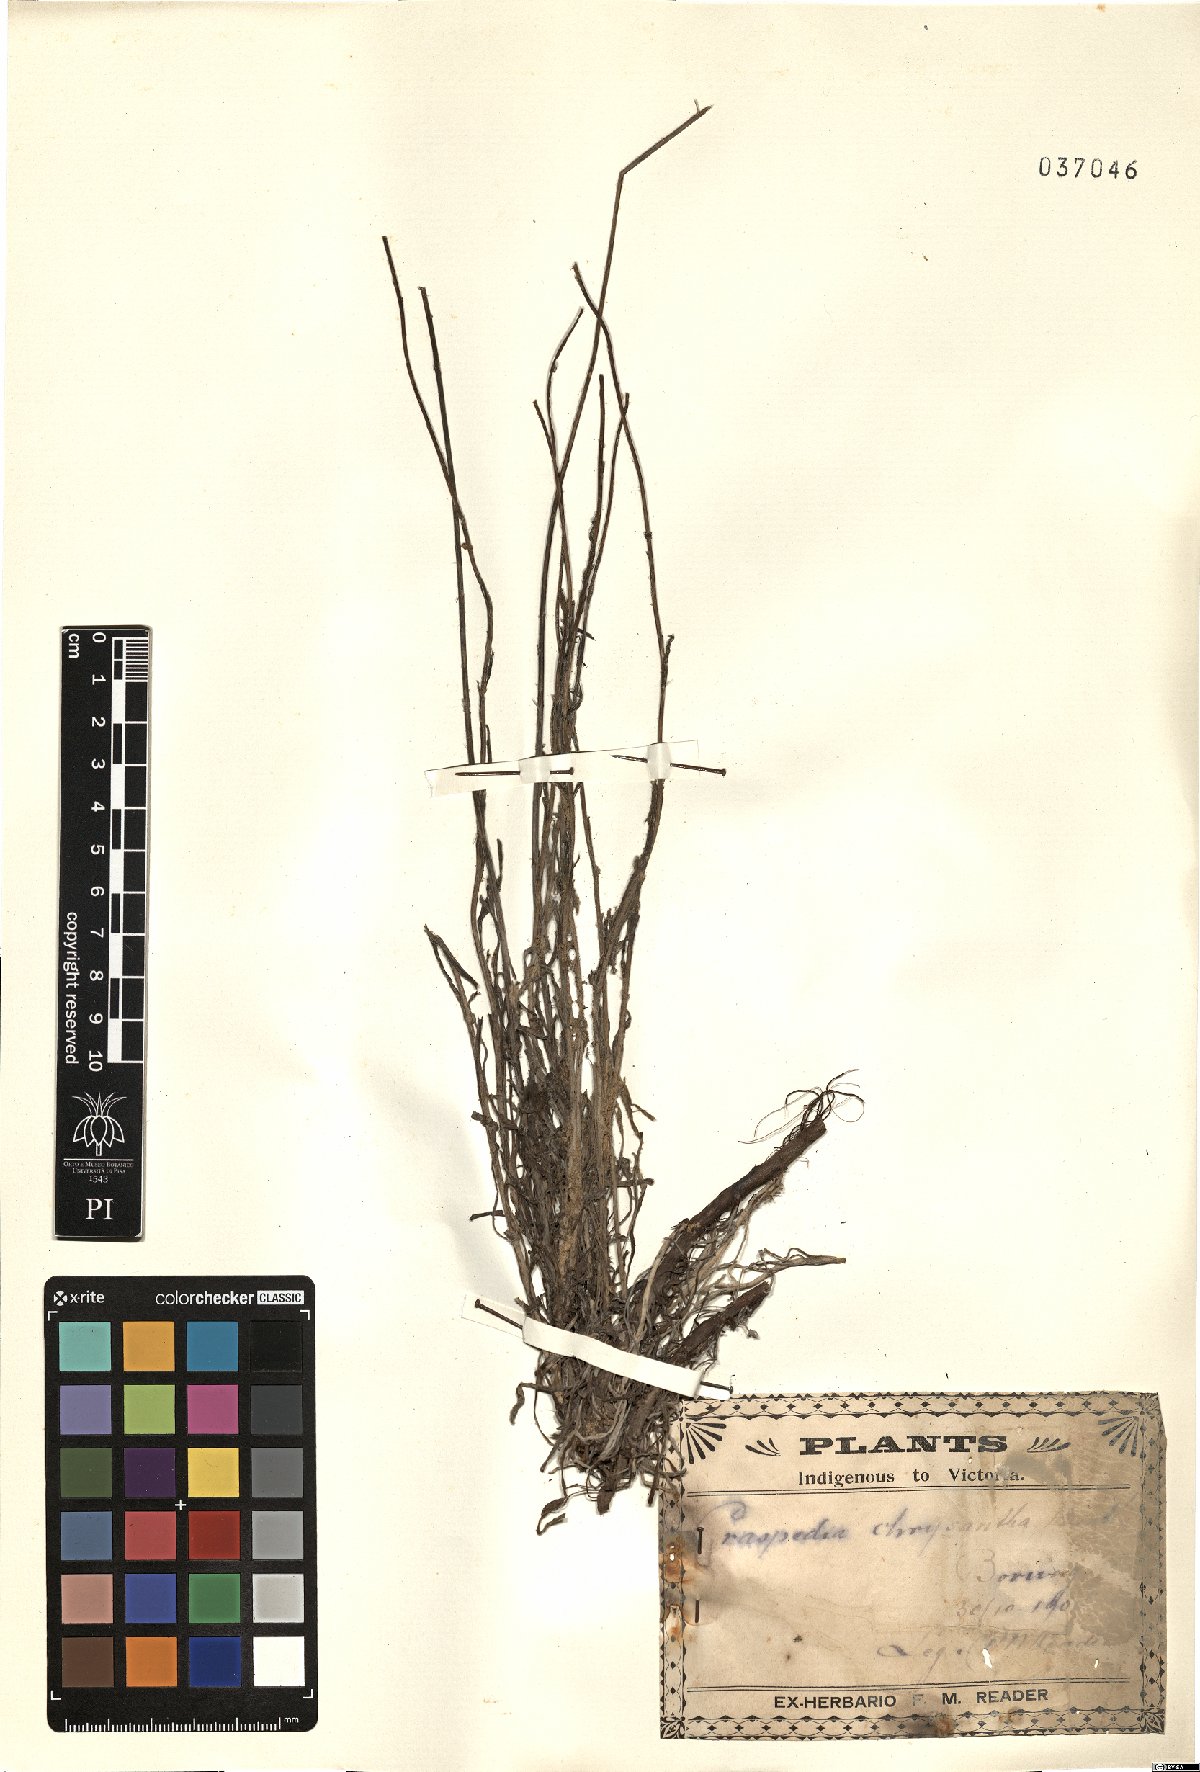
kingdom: Plantae
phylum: Tracheophyta
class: Magnoliopsida
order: Asterales
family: Asteraceae
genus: Pycnosorus
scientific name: Pycnosorus chrysanthus
